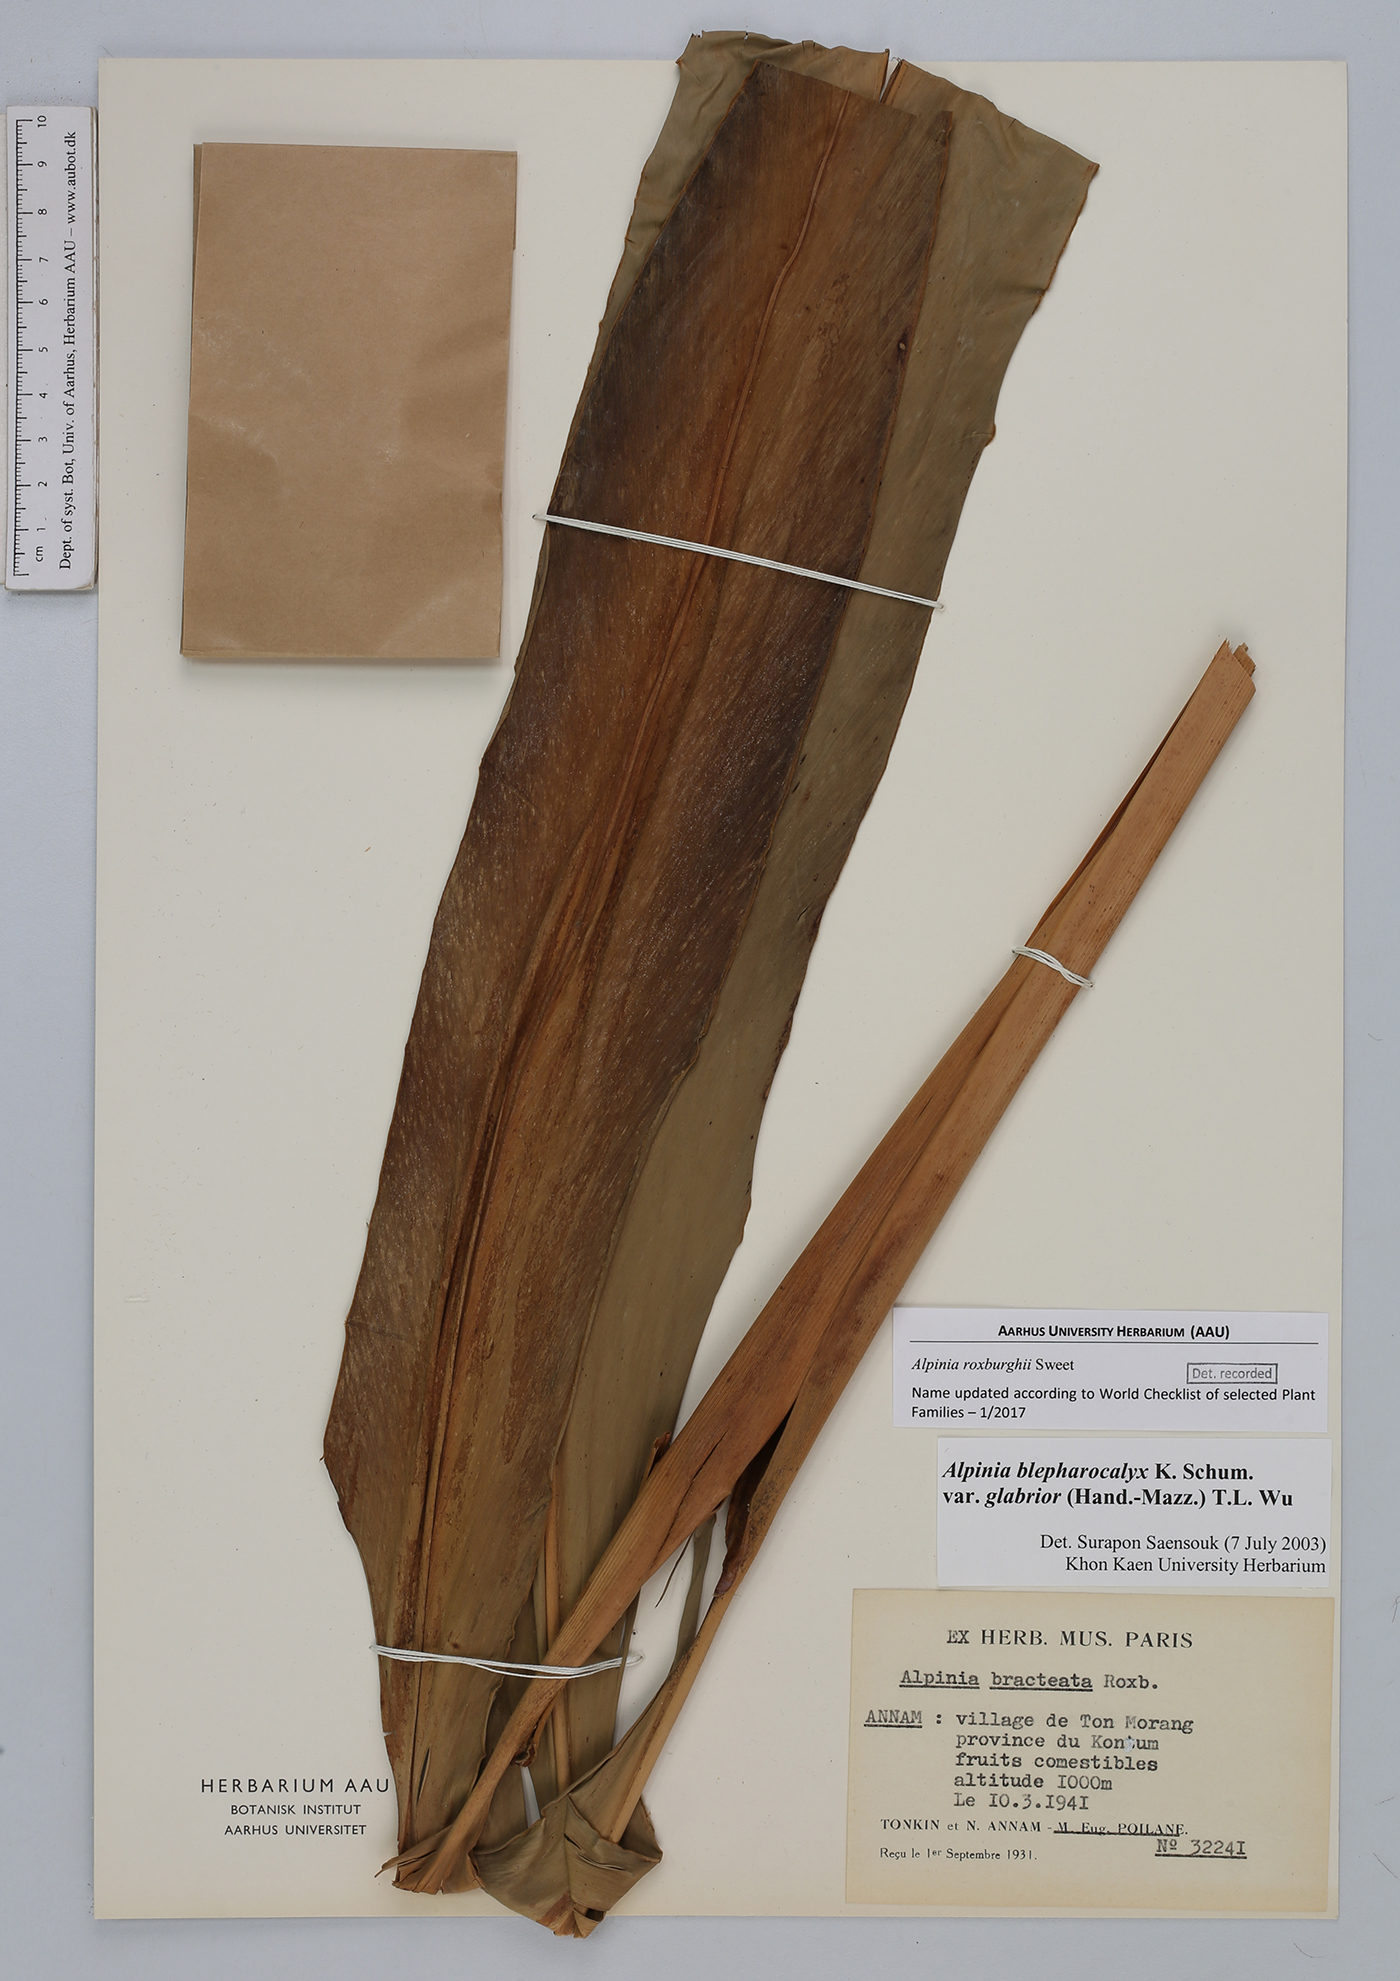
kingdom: Plantae
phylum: Tracheophyta
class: Liliopsida
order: Zingiberales
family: Zingiberaceae
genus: Alpinia
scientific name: Alpinia roxburghii
